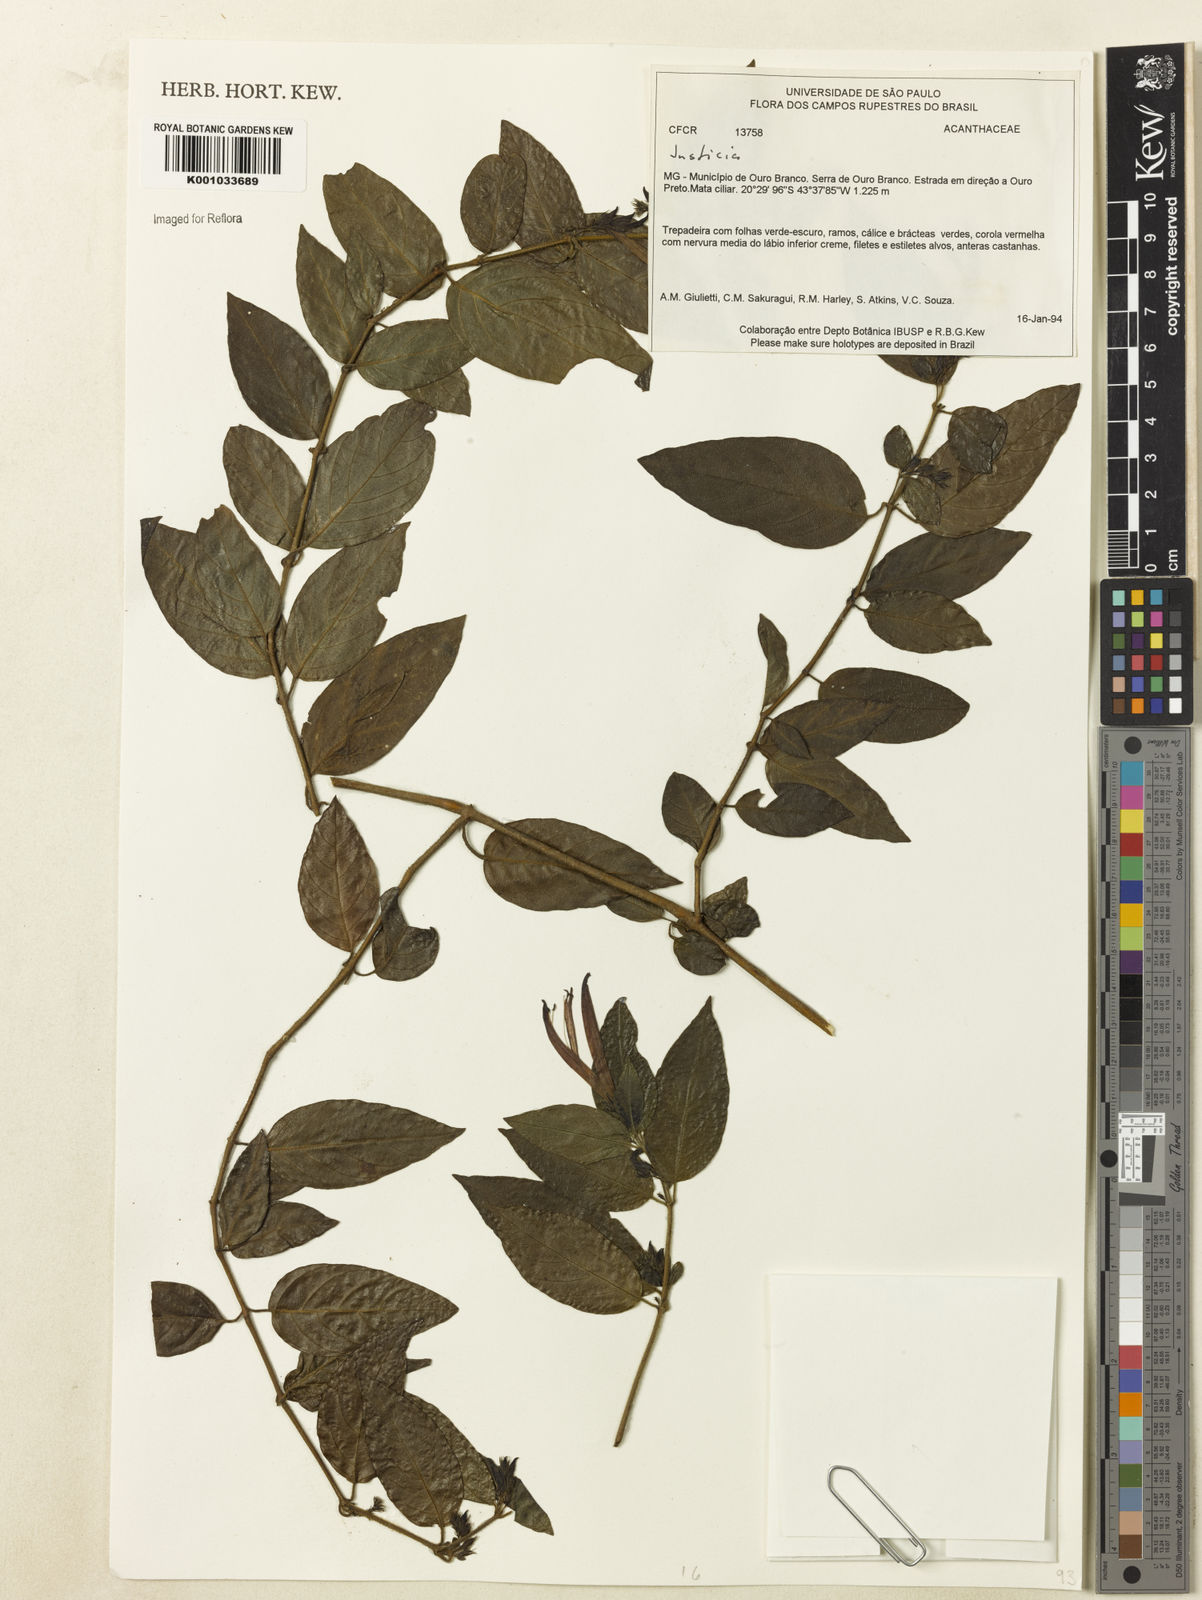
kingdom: Plantae
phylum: Tracheophyta
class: Magnoliopsida
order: Lamiales
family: Acanthaceae
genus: Justicia
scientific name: Justicia
